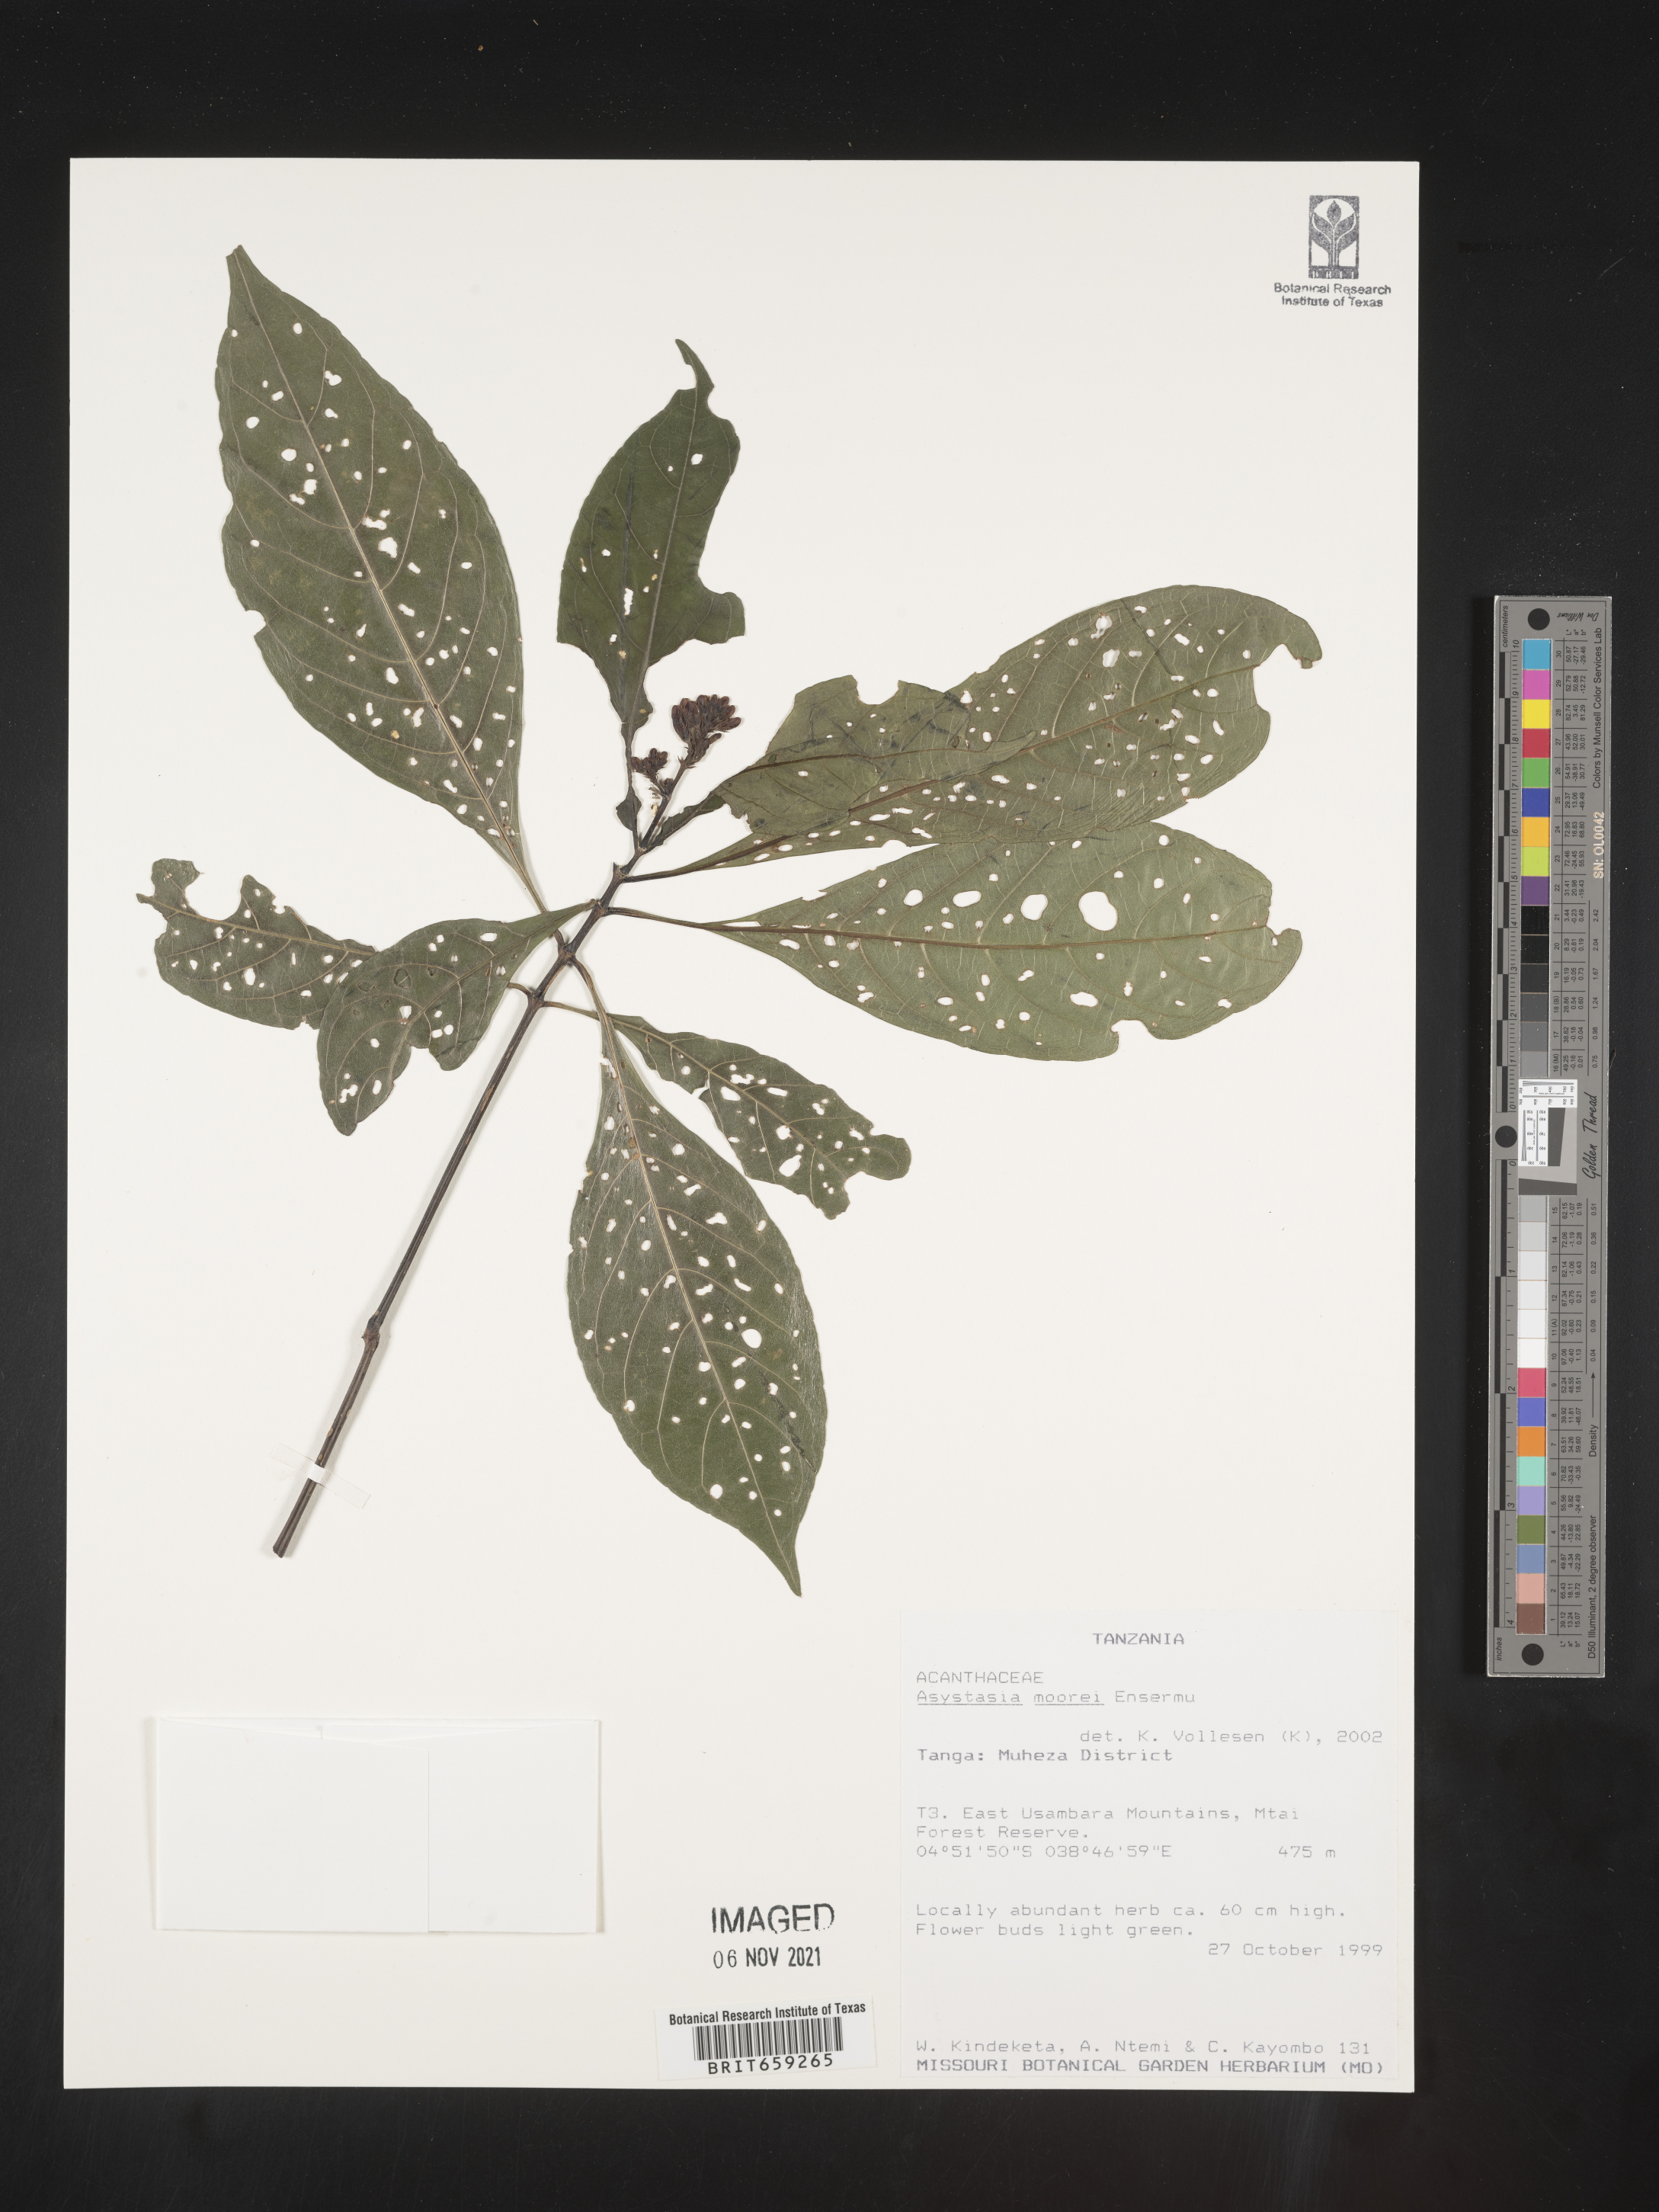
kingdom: Plantae
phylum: Tracheophyta
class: Magnoliopsida
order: Lamiales
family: Acanthaceae
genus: Asystasia
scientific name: Asystasia moorei
